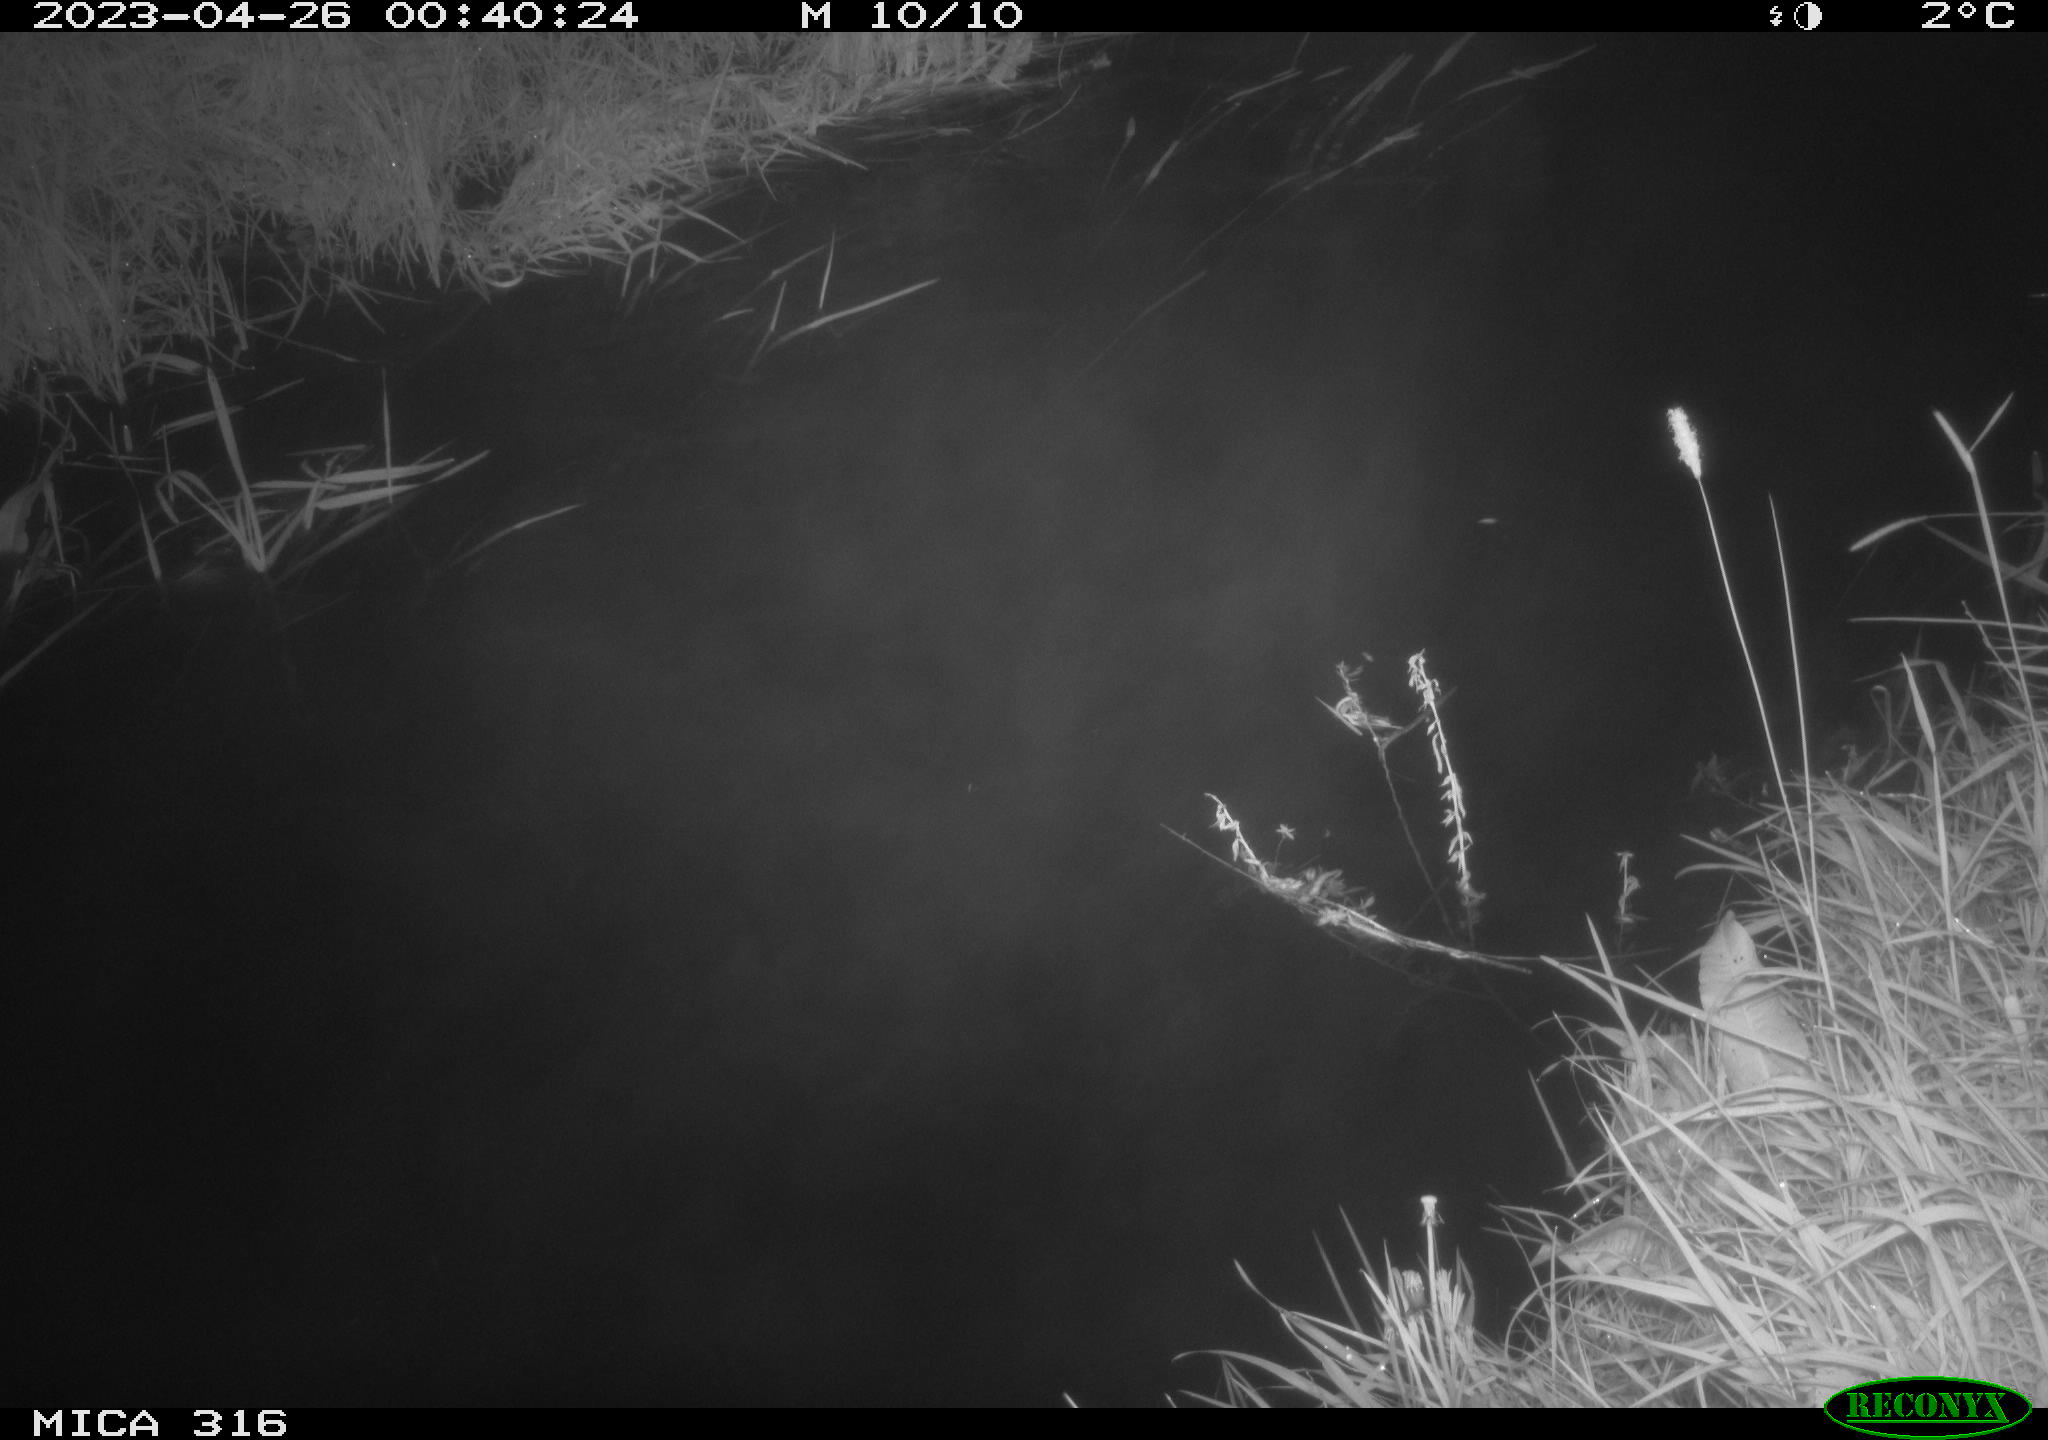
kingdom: Animalia
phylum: Chordata
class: Aves
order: Anseriformes
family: Anatidae
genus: Anas
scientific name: Anas
